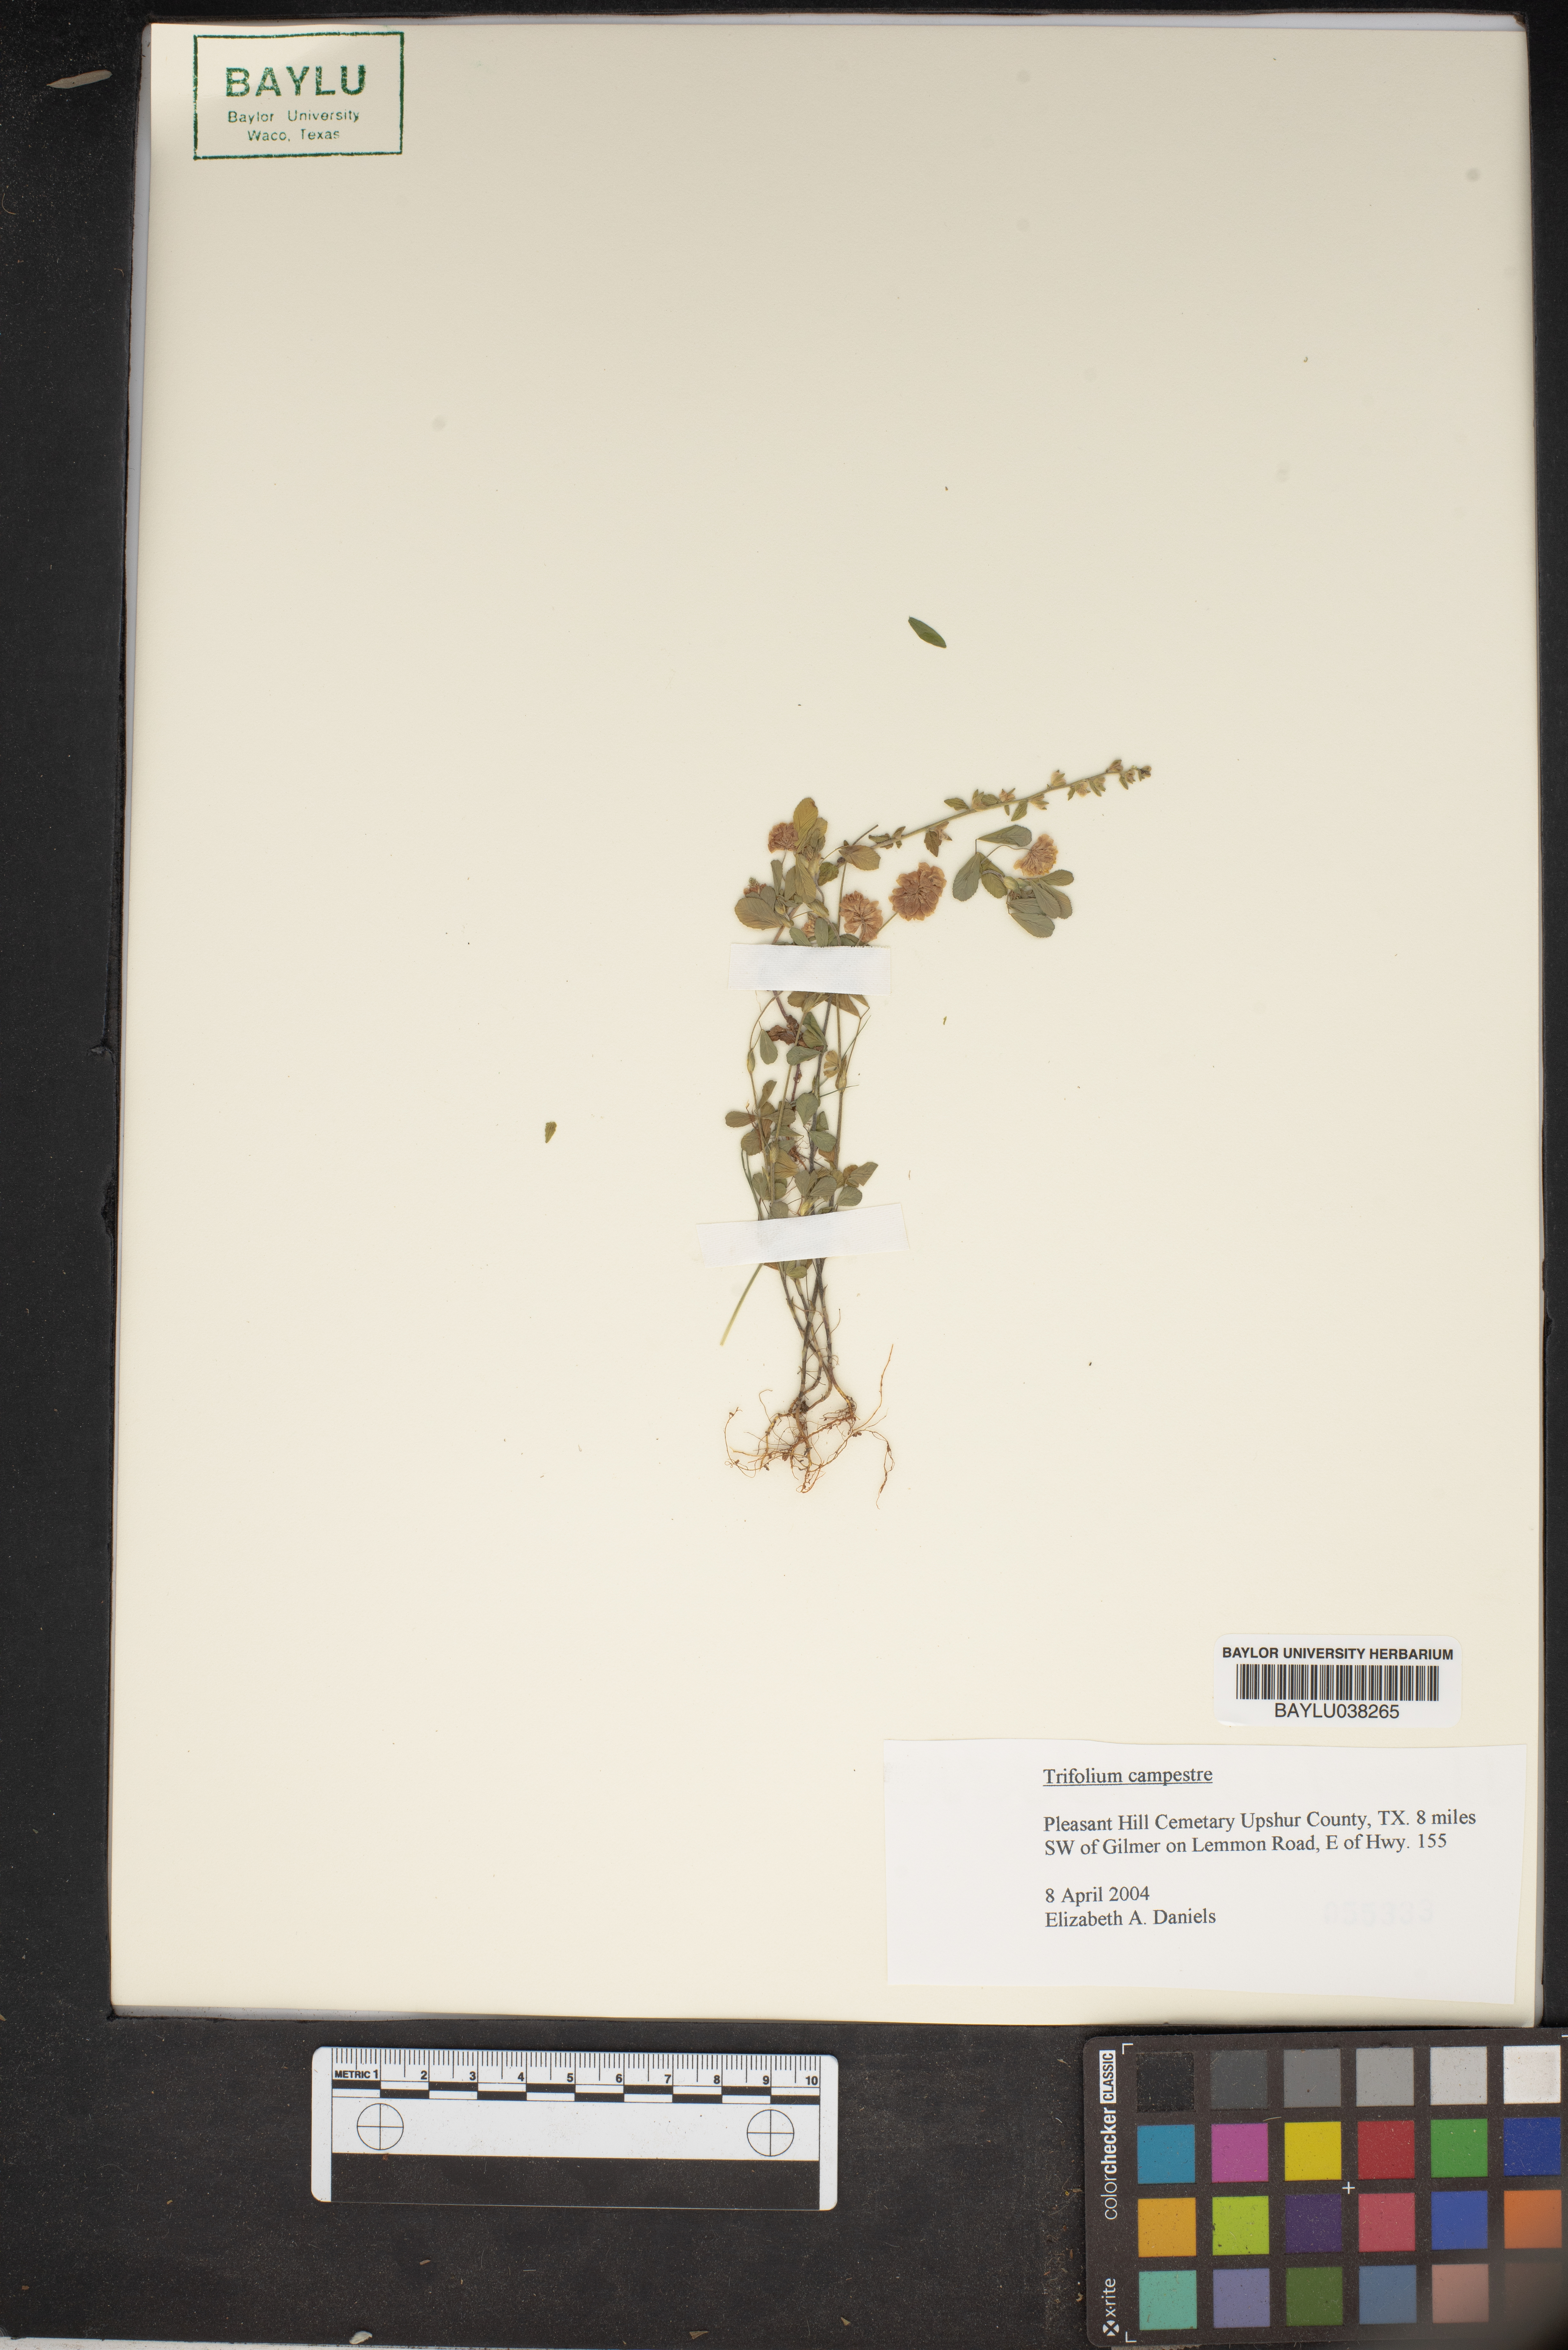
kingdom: Plantae
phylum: Tracheophyta
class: Magnoliopsida
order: Fabales
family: Fabaceae
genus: Trifolium
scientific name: Trifolium campestre
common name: Field clover
